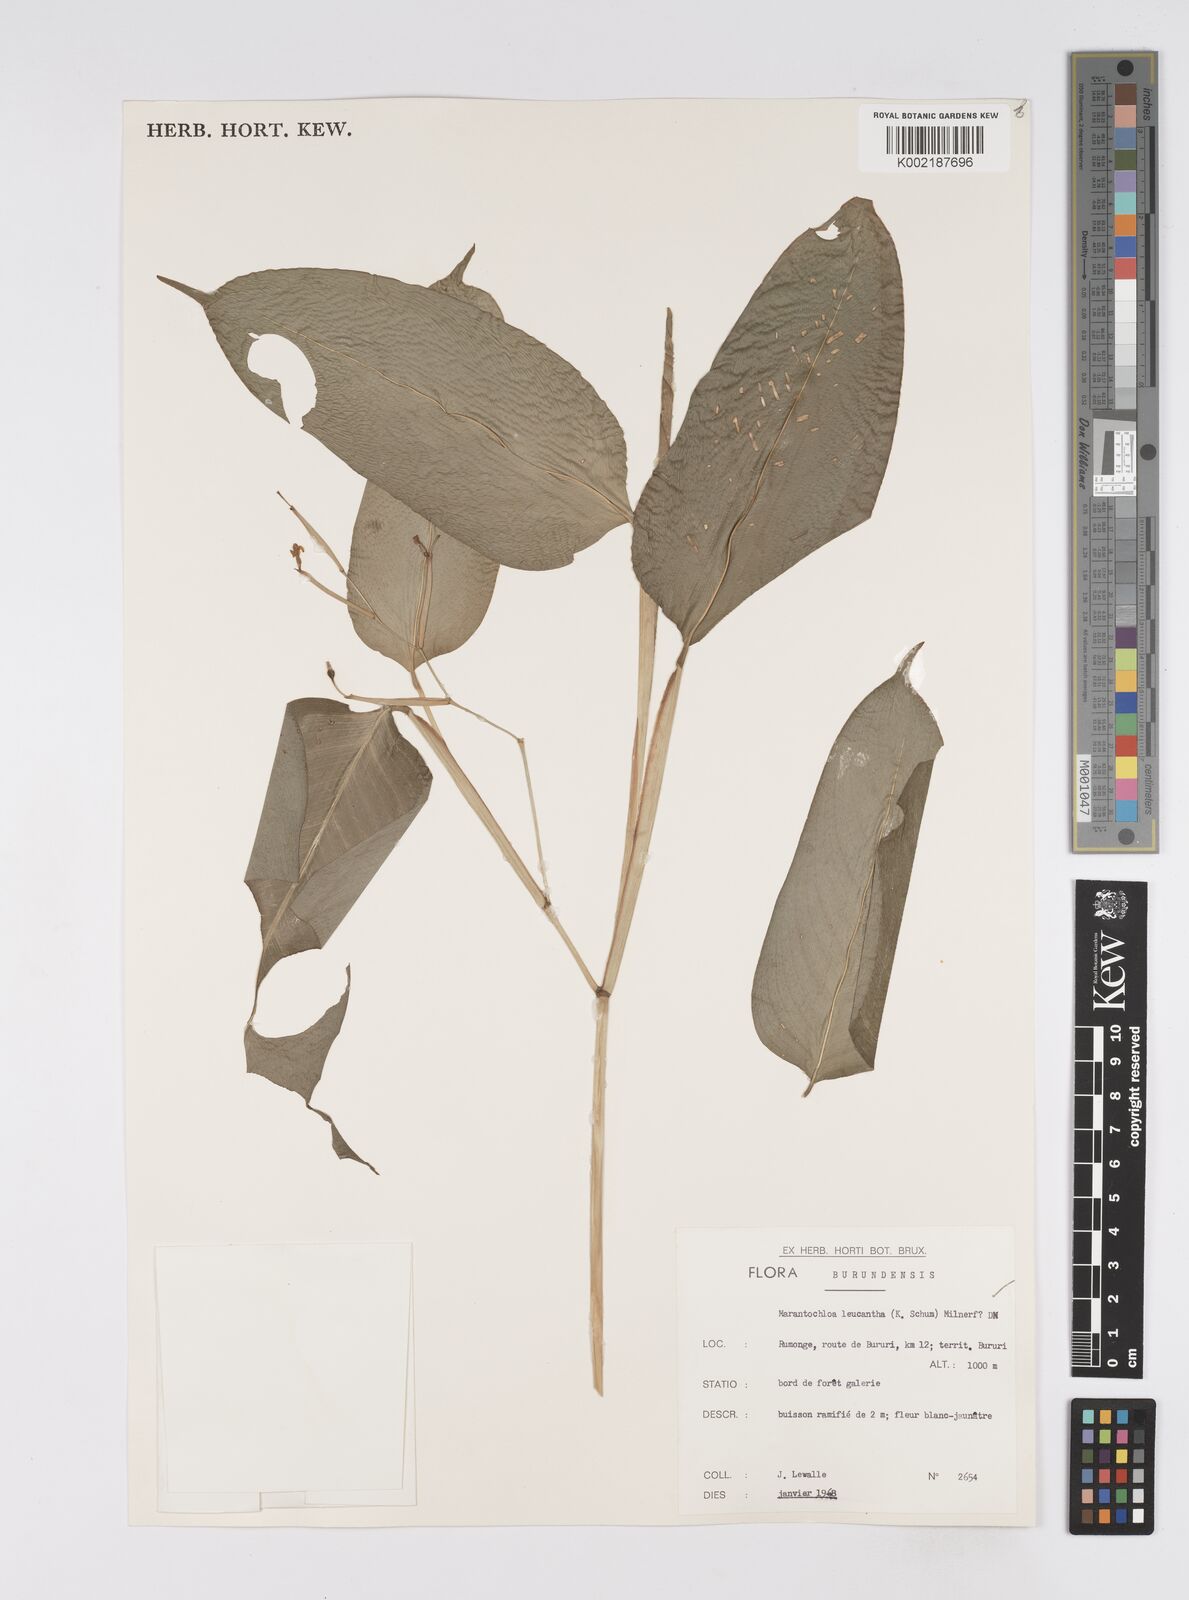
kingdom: Plantae
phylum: Tracheophyta
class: Liliopsida
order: Zingiberales
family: Marantaceae
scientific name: Marantaceae
